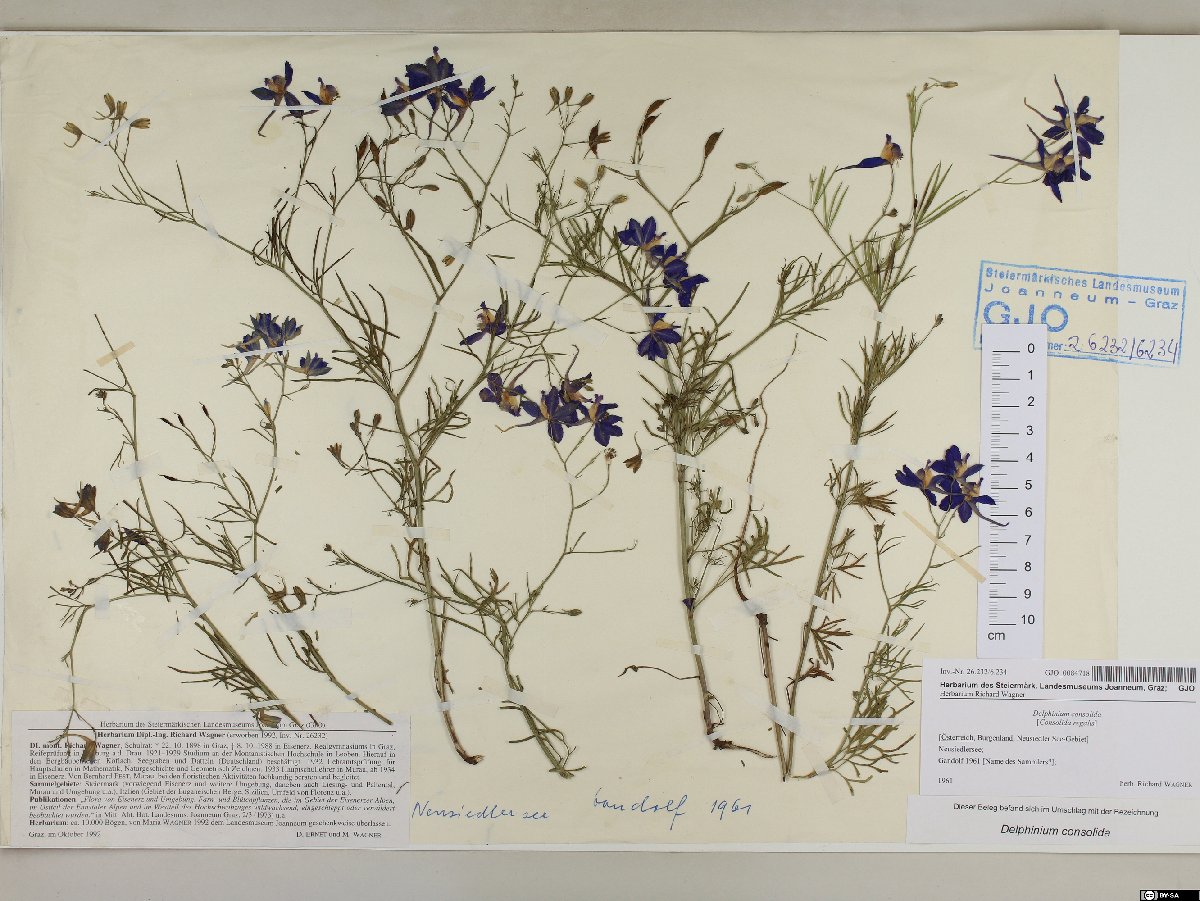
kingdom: Plantae
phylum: Tracheophyta
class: Magnoliopsida
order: Ranunculales
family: Ranunculaceae
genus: Delphinium
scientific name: Delphinium consolida
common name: Branching larkspur
